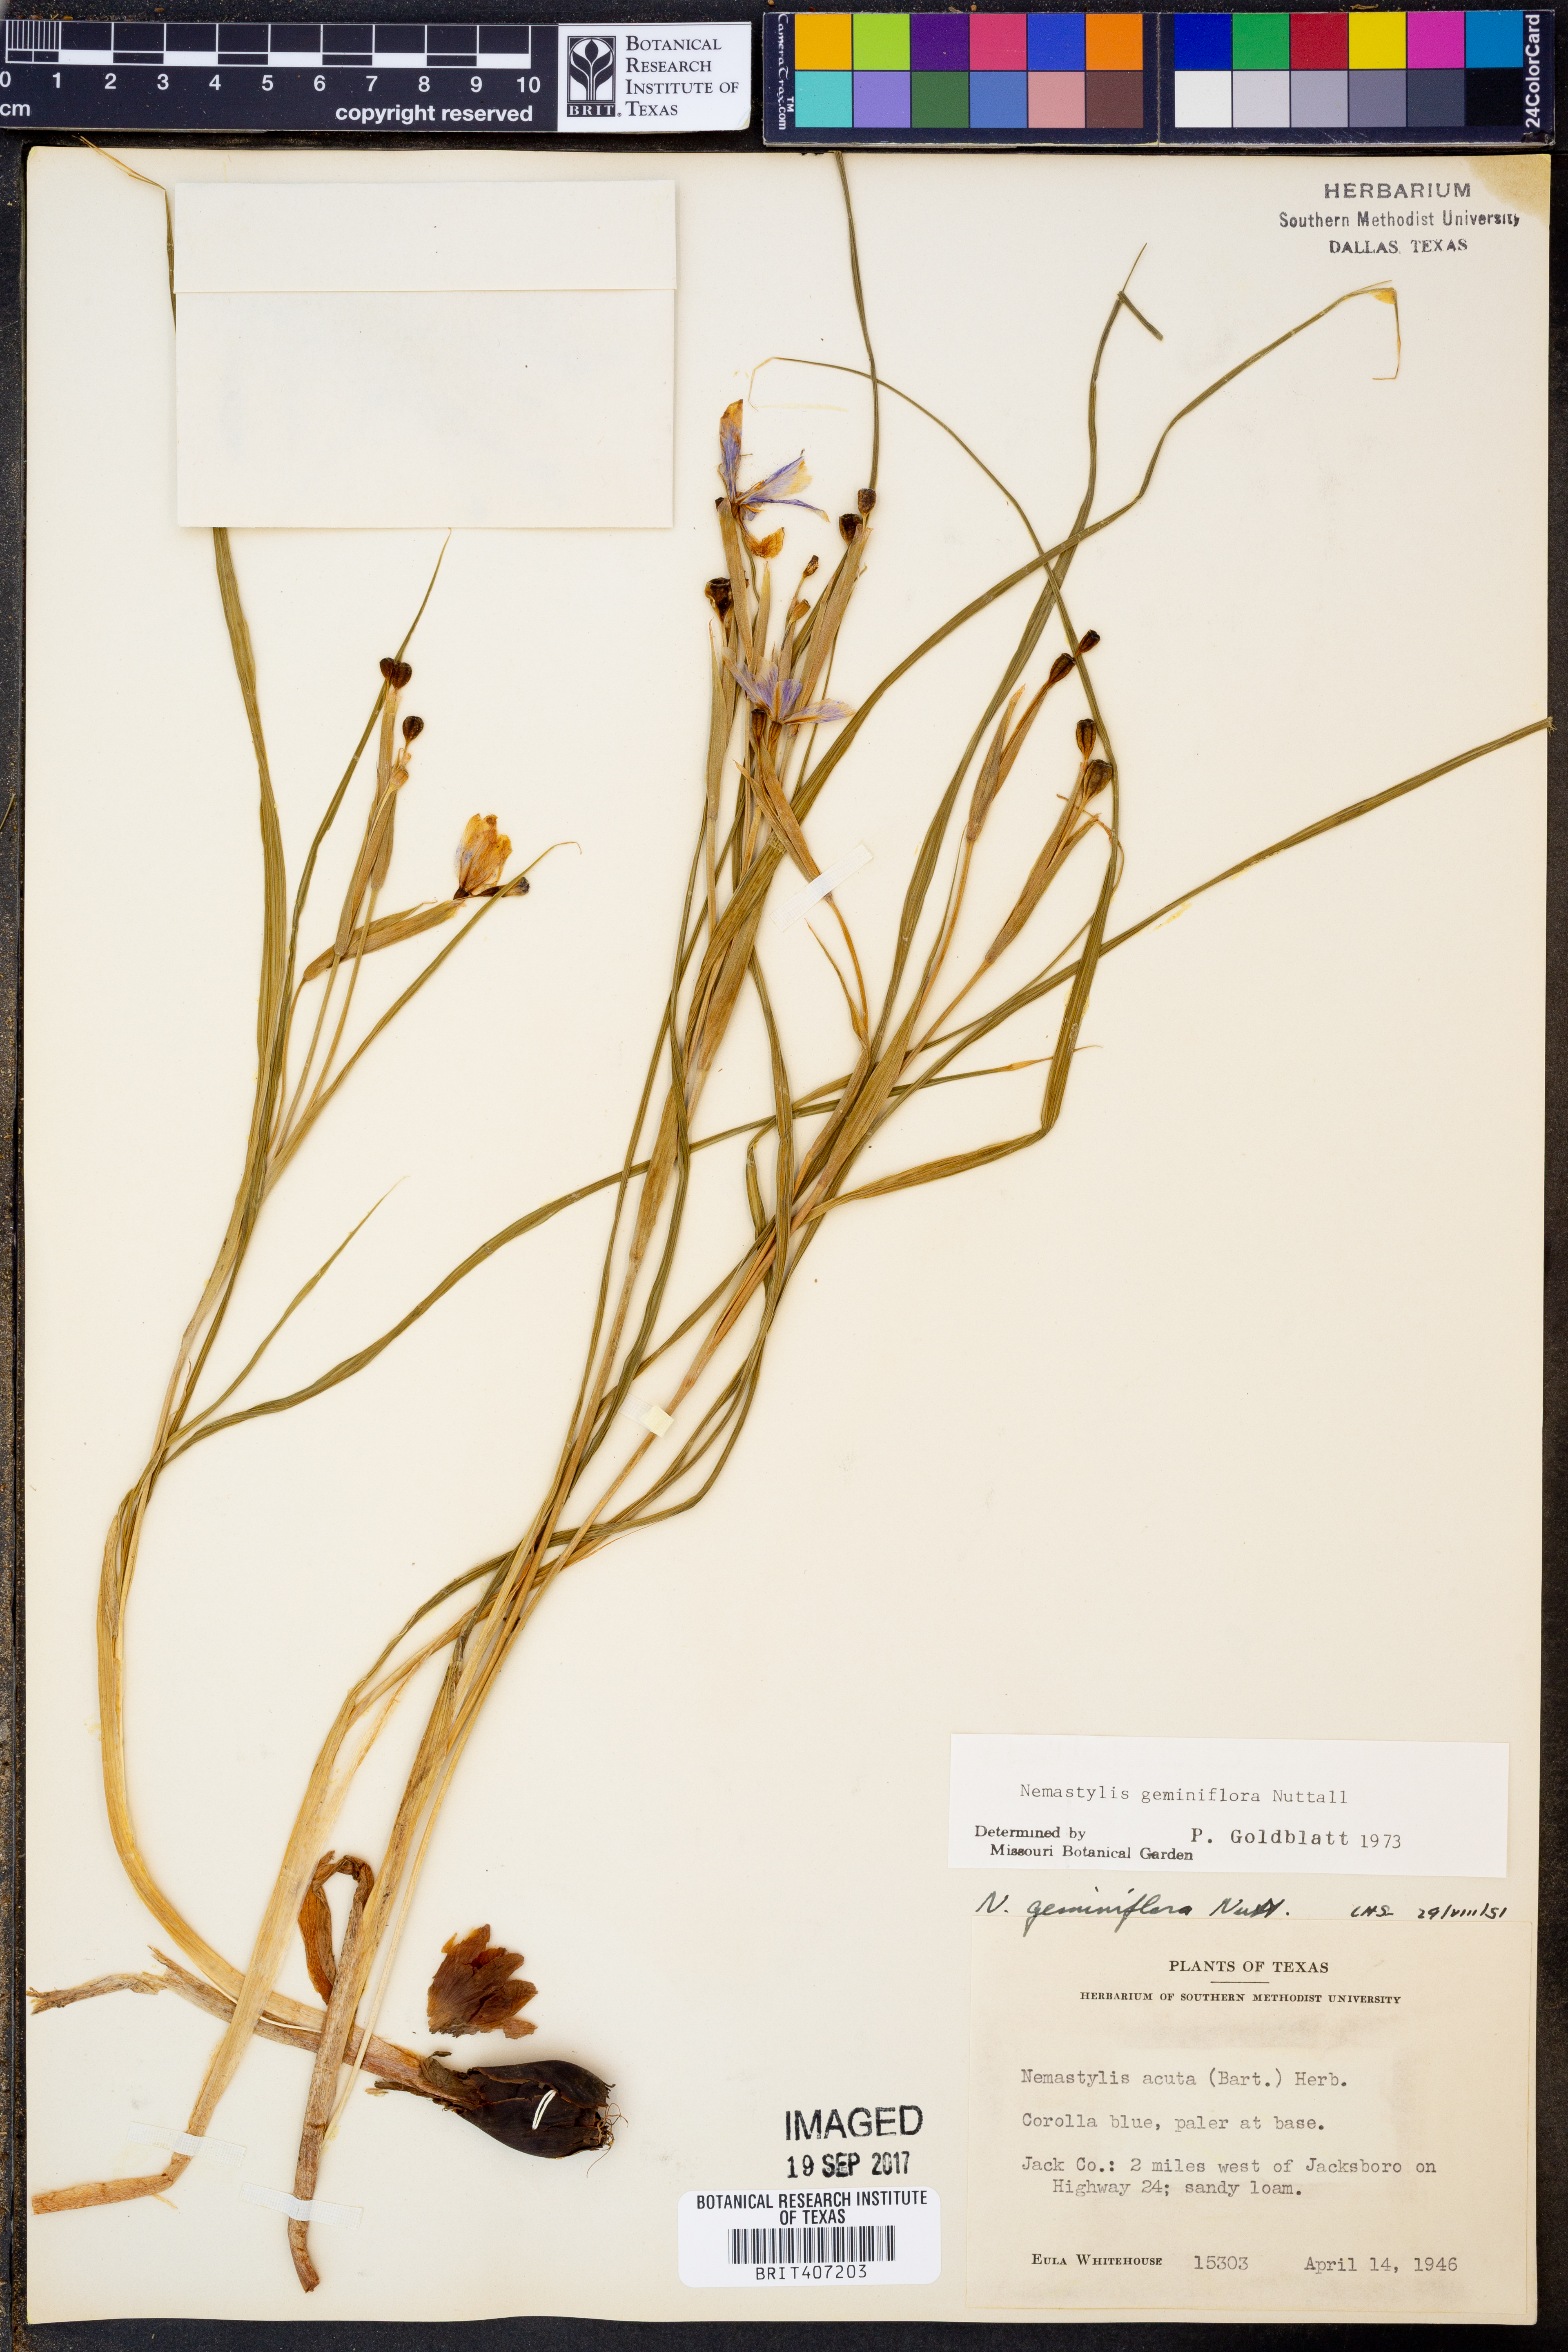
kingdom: Plantae
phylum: Tracheophyta
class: Liliopsida
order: Asparagales
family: Iridaceae
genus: Nemastylis
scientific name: Nemastylis geminiflora
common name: Prairie celestial
